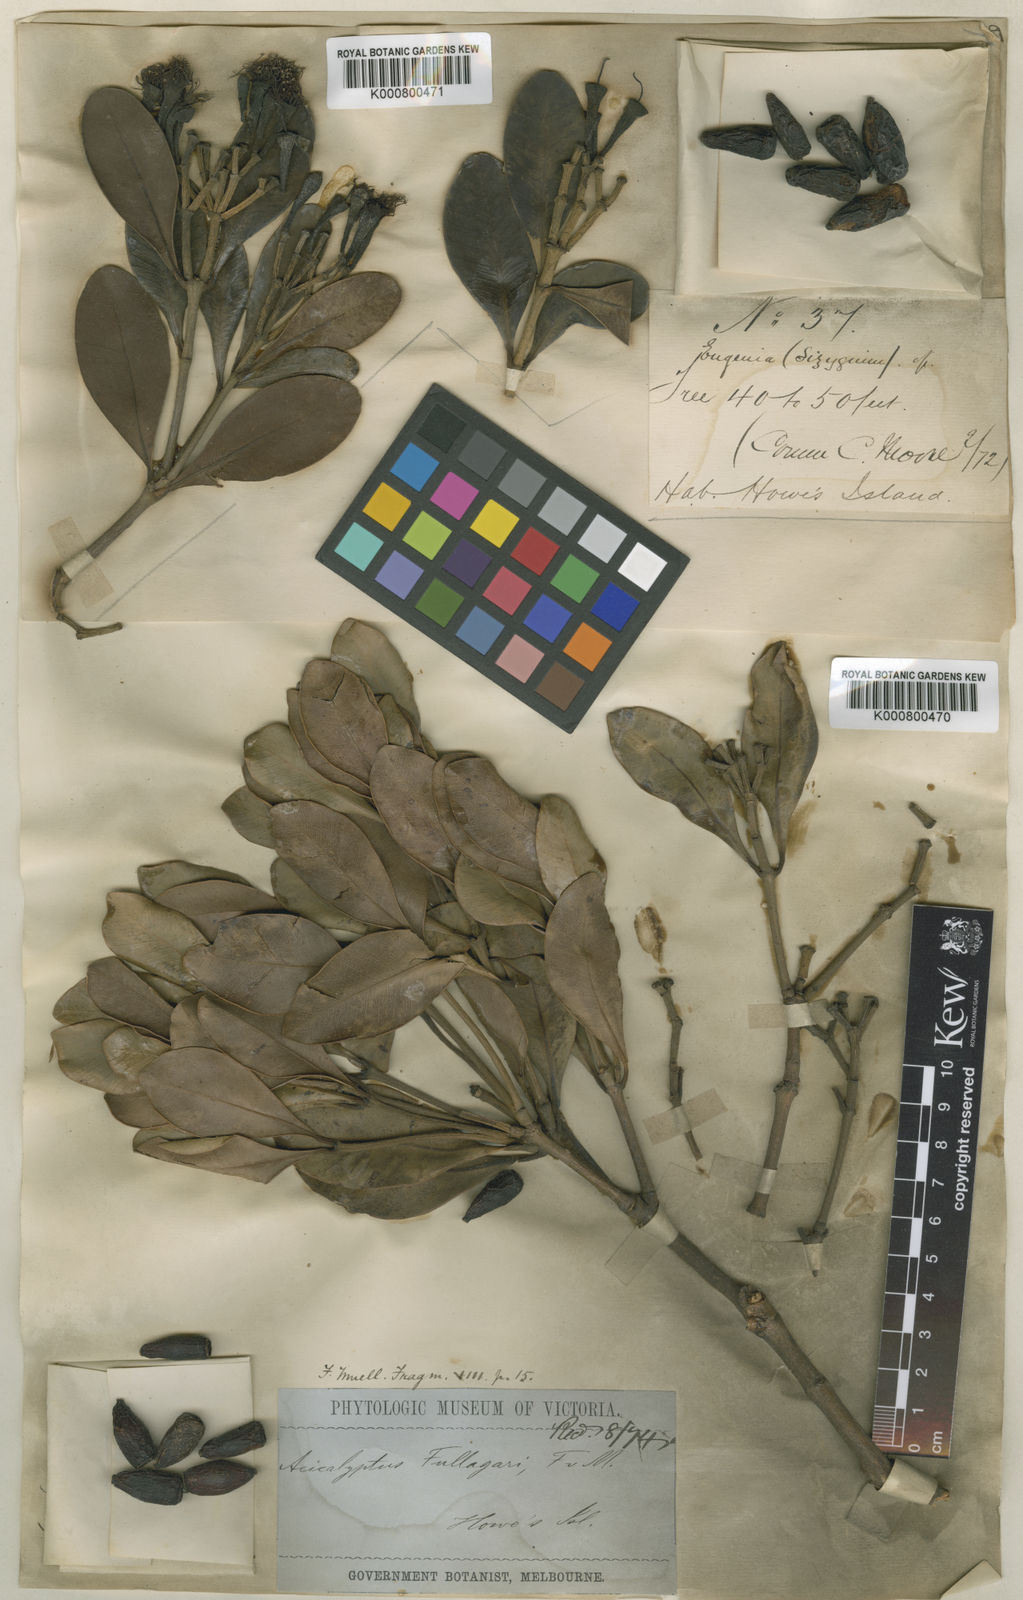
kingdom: Plantae
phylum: Tracheophyta
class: Magnoliopsida
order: Myrtales
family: Myrtaceae
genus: Syzygium
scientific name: Syzygium
